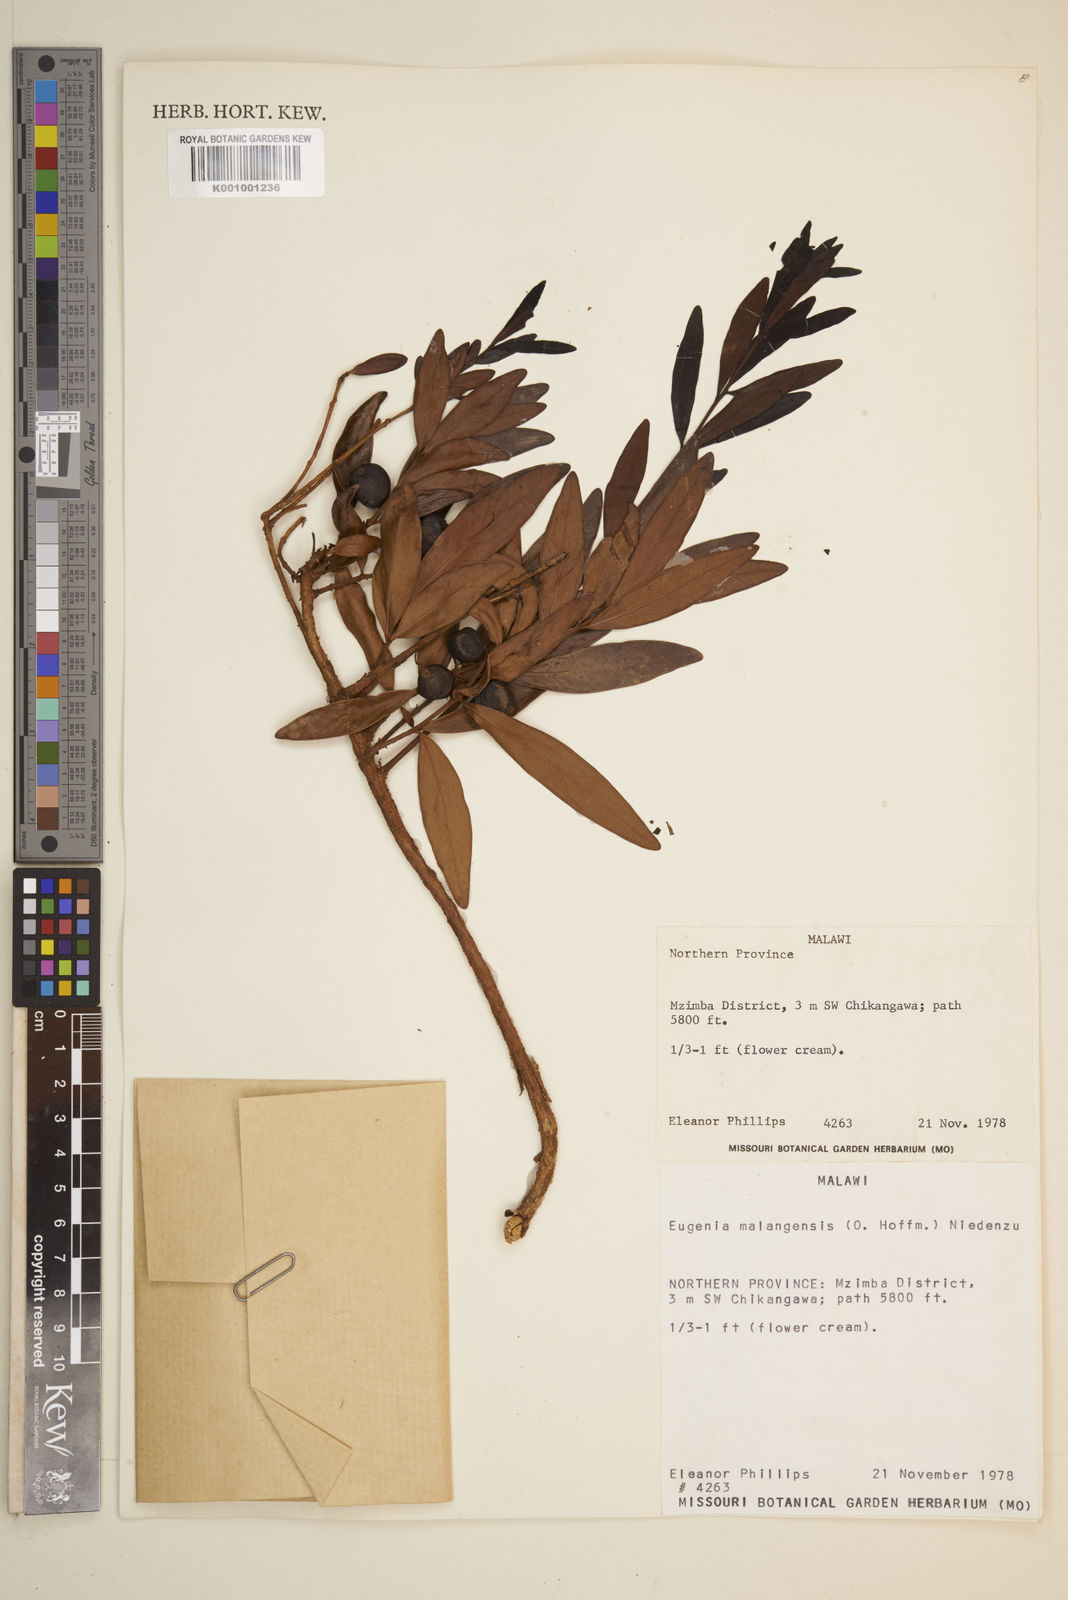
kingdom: Plantae
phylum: Tracheophyta
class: Magnoliopsida
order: Myrtales
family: Myrtaceae
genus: Eugenia
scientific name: Eugenia malangensis
